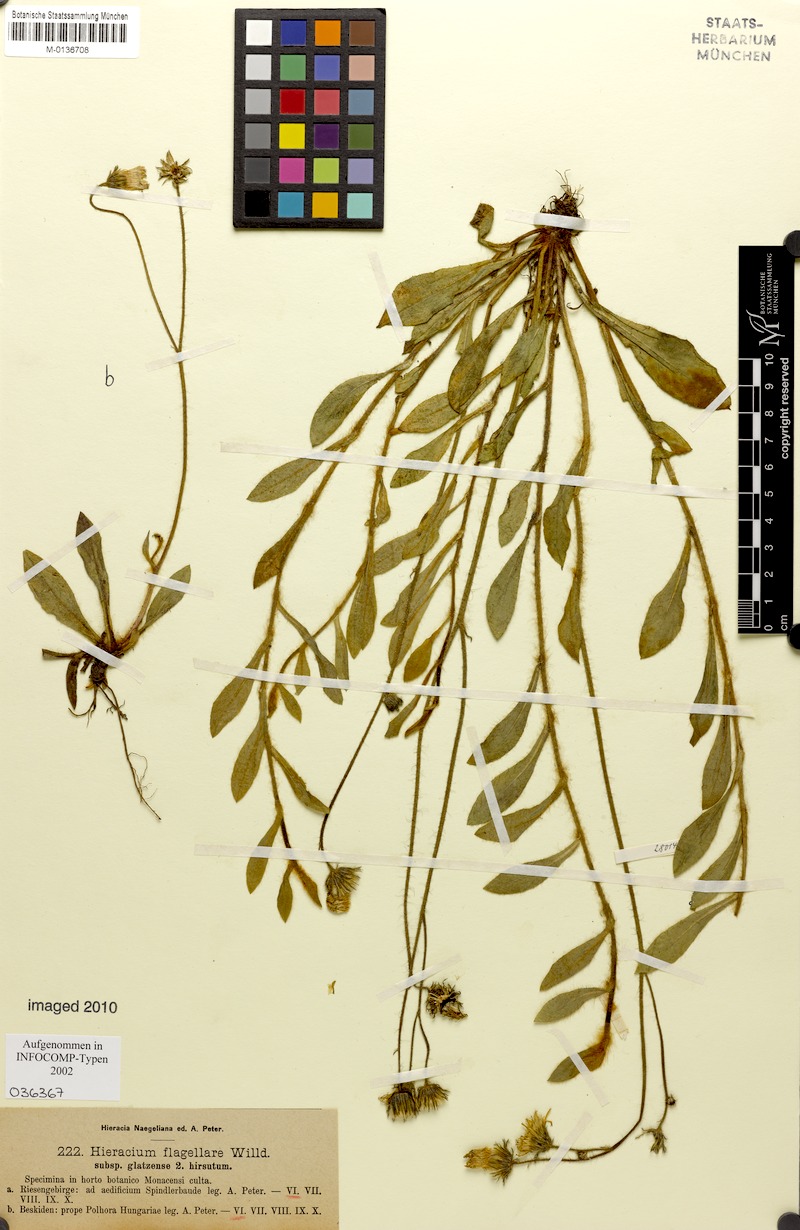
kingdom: Plantae
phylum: Tracheophyta
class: Magnoliopsida
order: Asterales
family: Asteraceae
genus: Pilosella
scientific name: Pilosella
